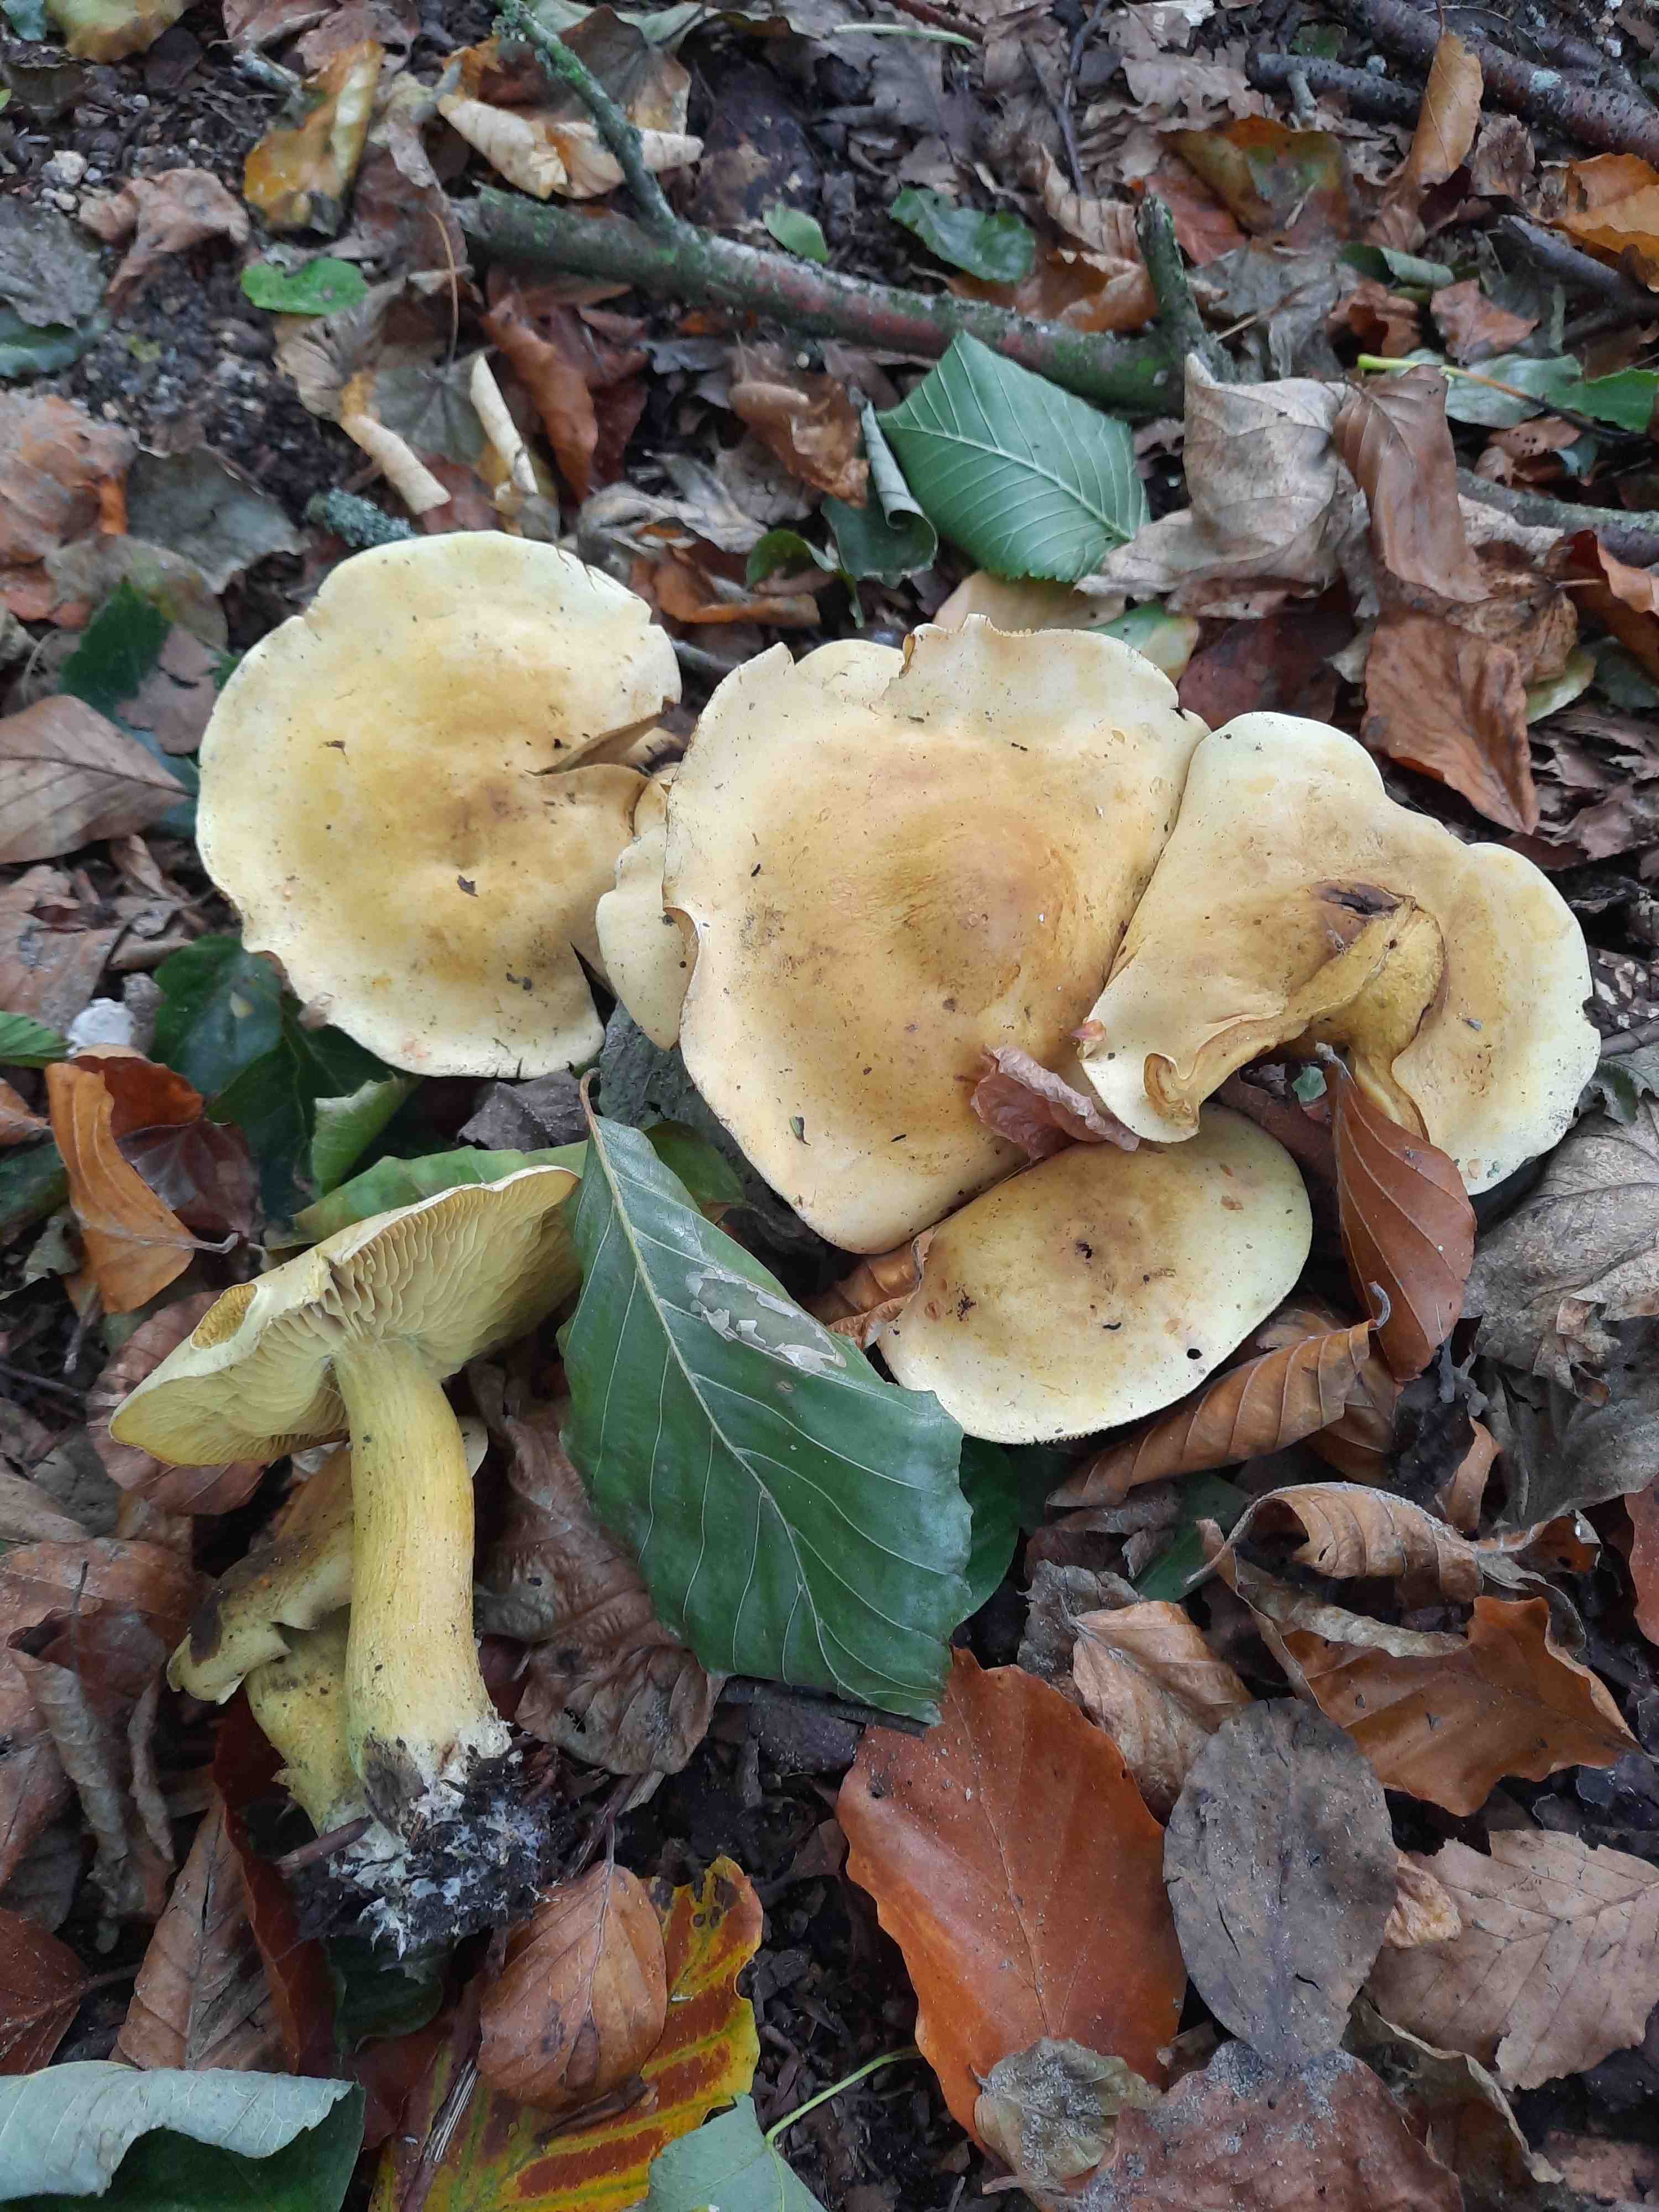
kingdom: Fungi
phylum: Basidiomycota
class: Agaricomycetes
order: Agaricales
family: Tricholomataceae
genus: Tricholoma
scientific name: Tricholoma sulphureum
